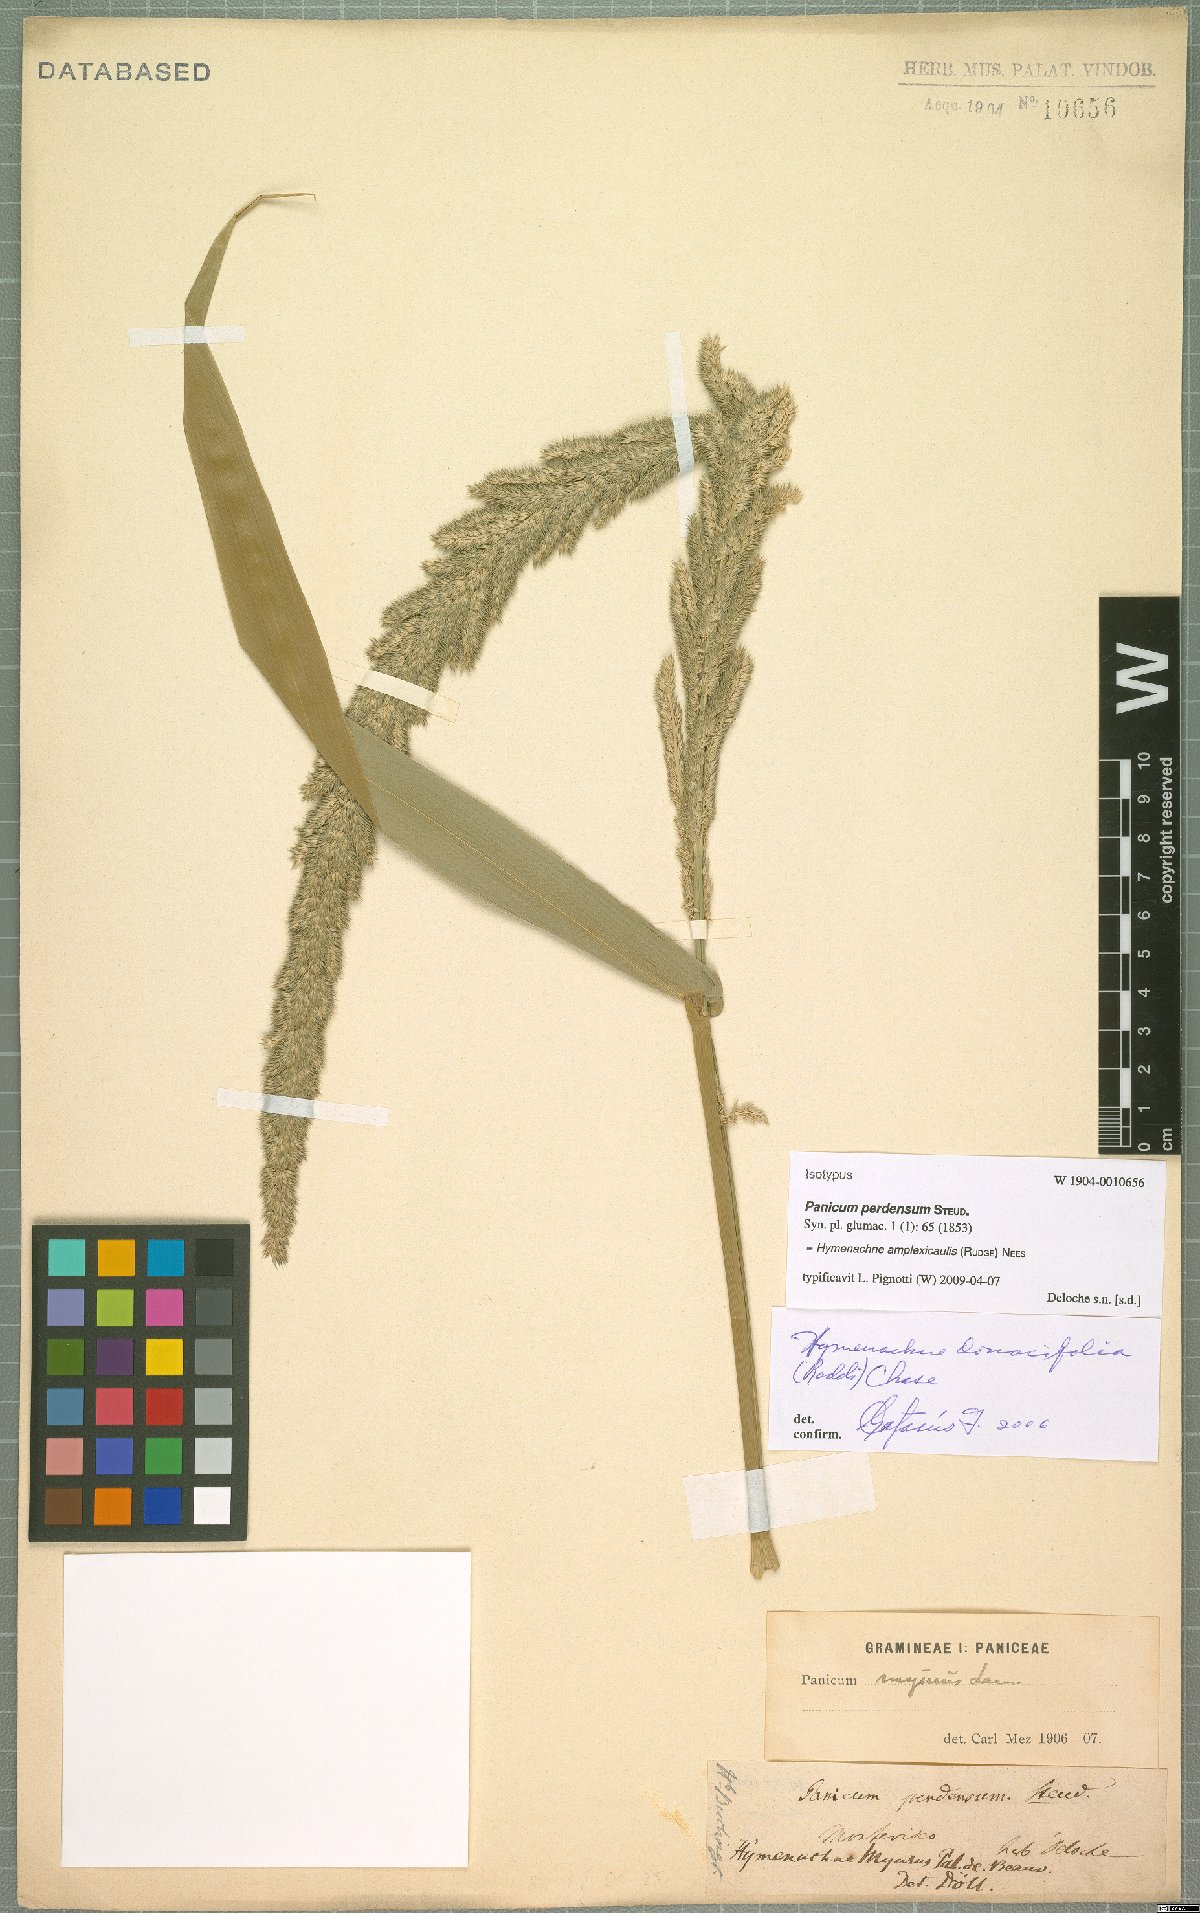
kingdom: Plantae
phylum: Tracheophyta
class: Liliopsida
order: Poales
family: Poaceae
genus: Hymenachne
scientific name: Hymenachne amplexicaulis
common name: Olive hymenachne
